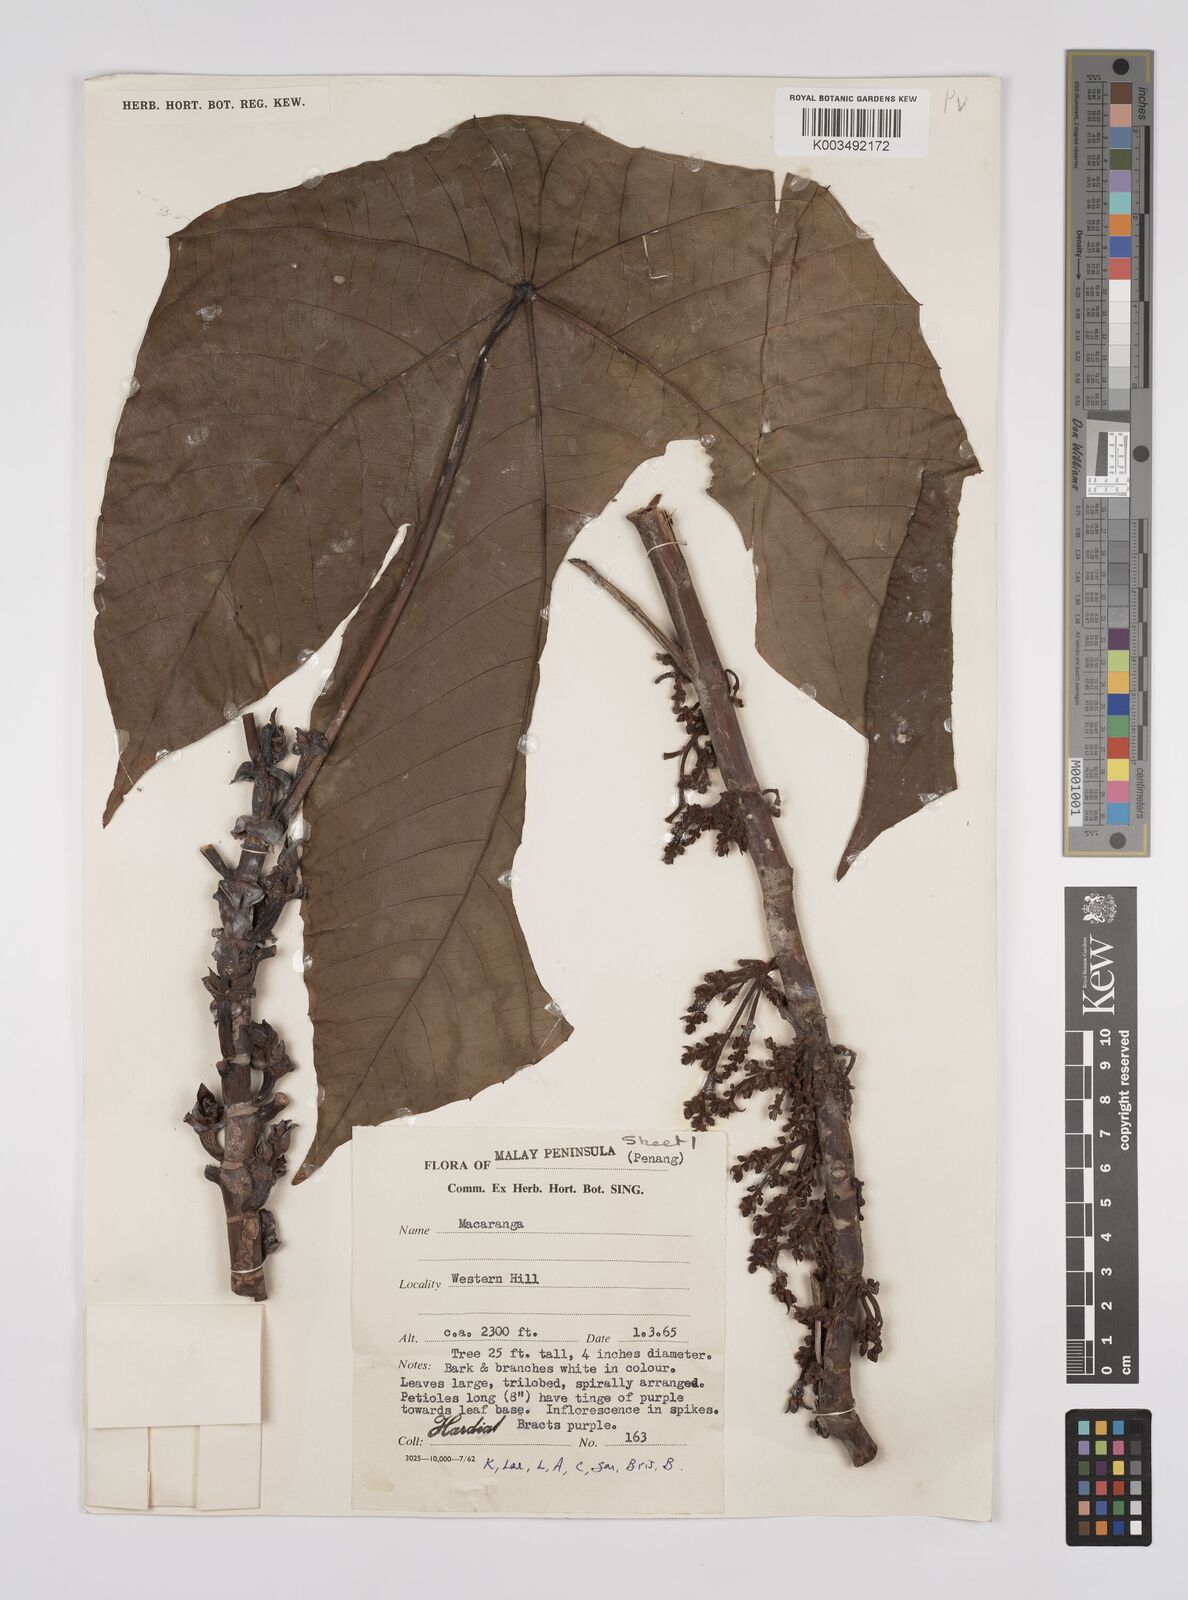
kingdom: Plantae
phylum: Tracheophyta
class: Magnoliopsida
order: Malpighiales
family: Euphorbiaceae
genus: Macaranga
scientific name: Macaranga triloba
